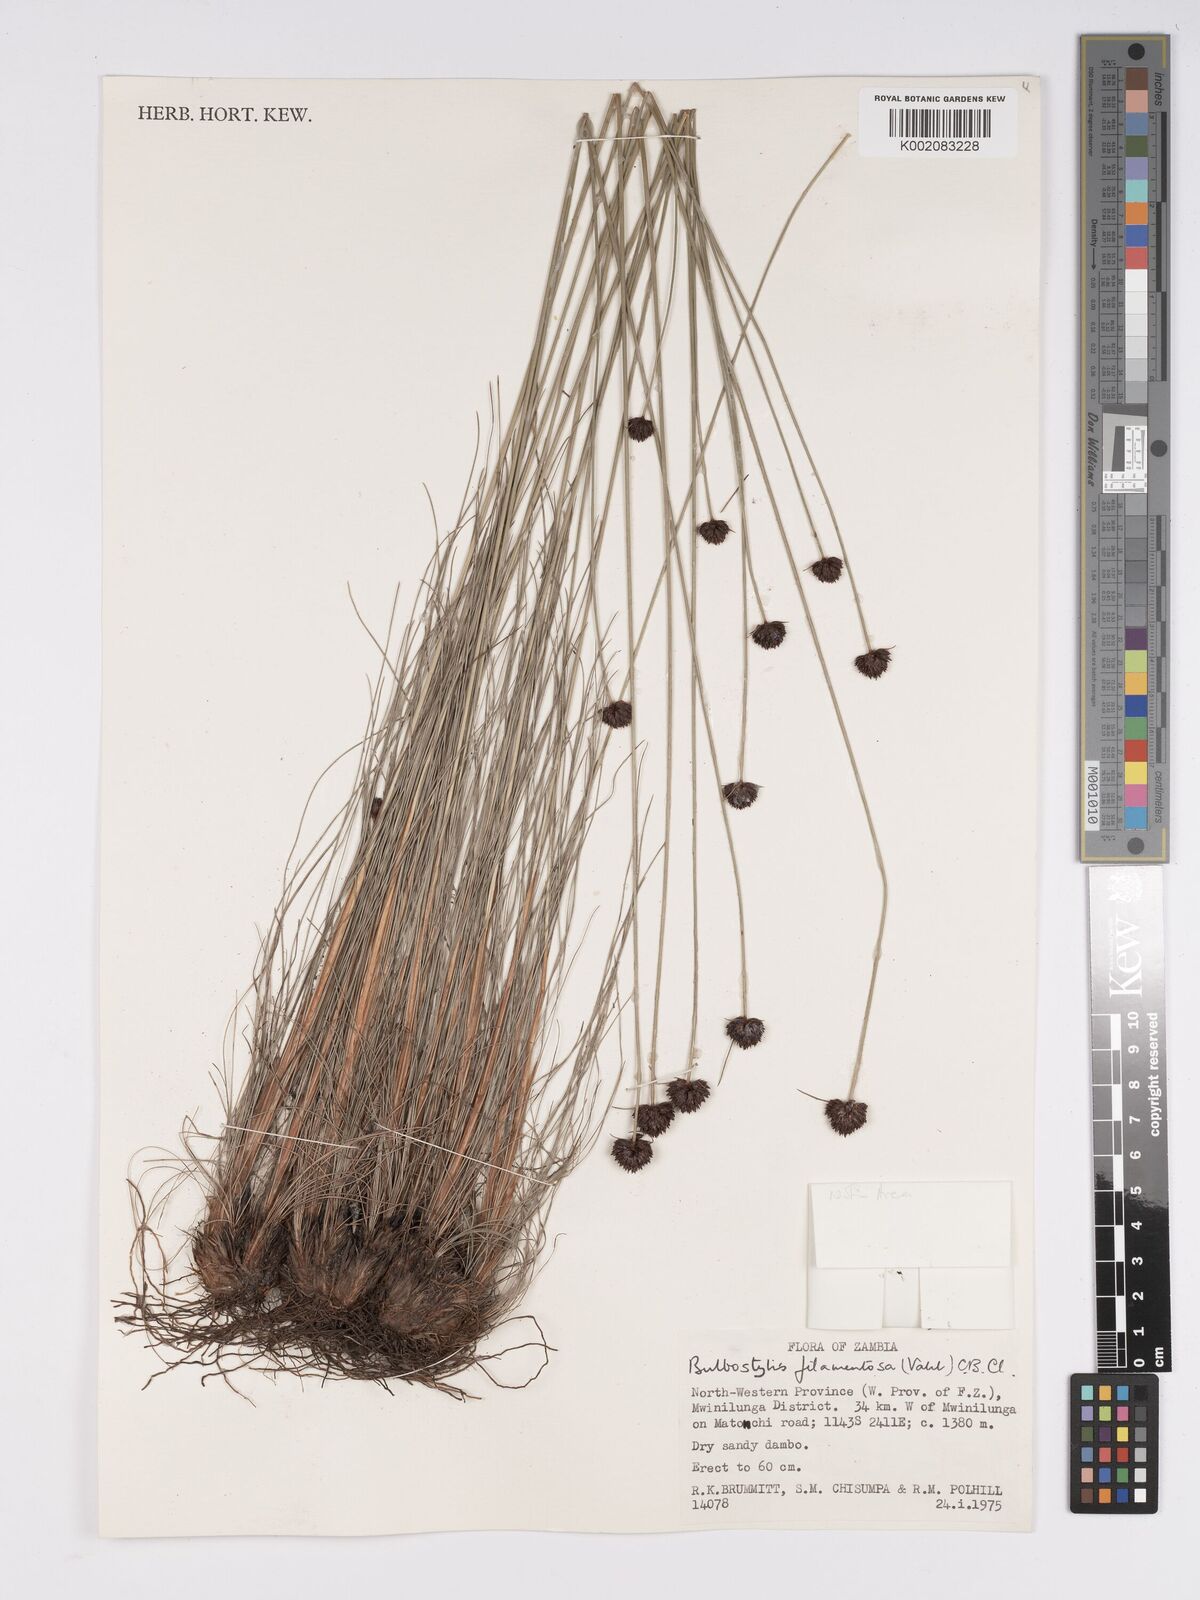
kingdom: Plantae
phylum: Tracheophyta
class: Liliopsida
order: Poales
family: Cyperaceae
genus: Bulbostylis
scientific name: Bulbostylis filamentosa
